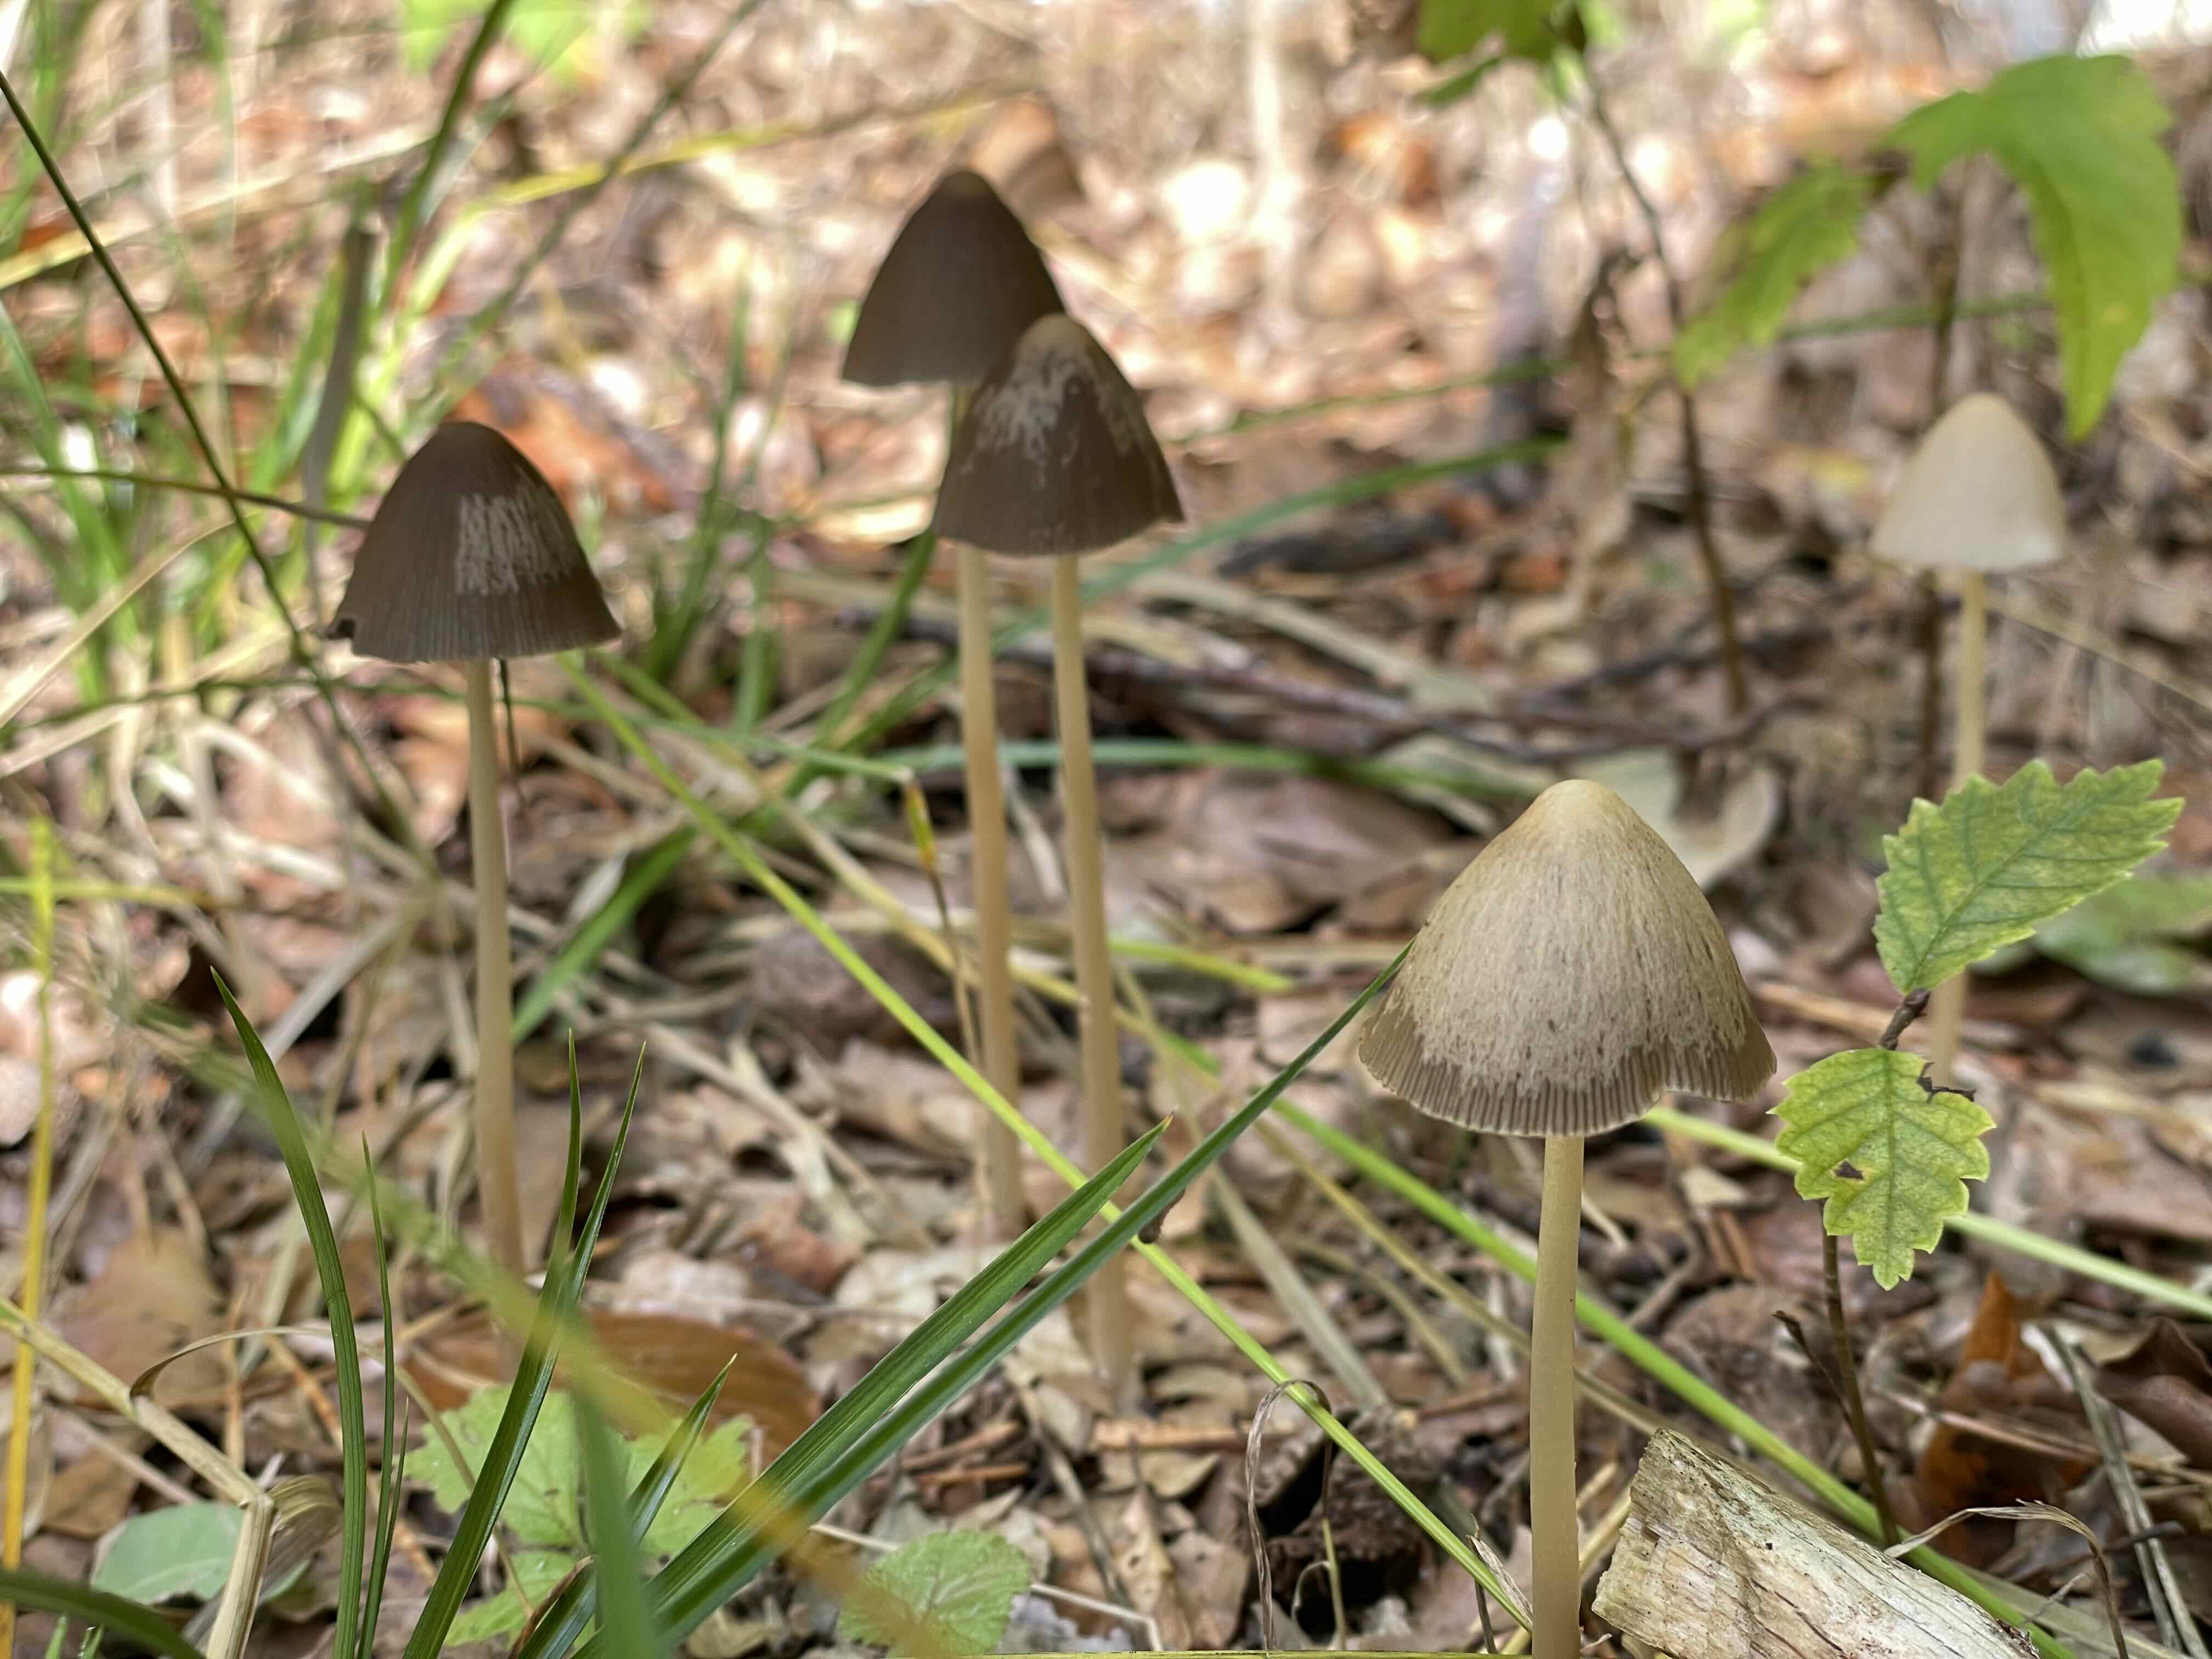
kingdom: Fungi
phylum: Basidiomycota
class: Agaricomycetes
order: Agaricales
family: Psathyrellaceae
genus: Parasola
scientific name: Parasola conopilea
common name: kegle-hjulhat
